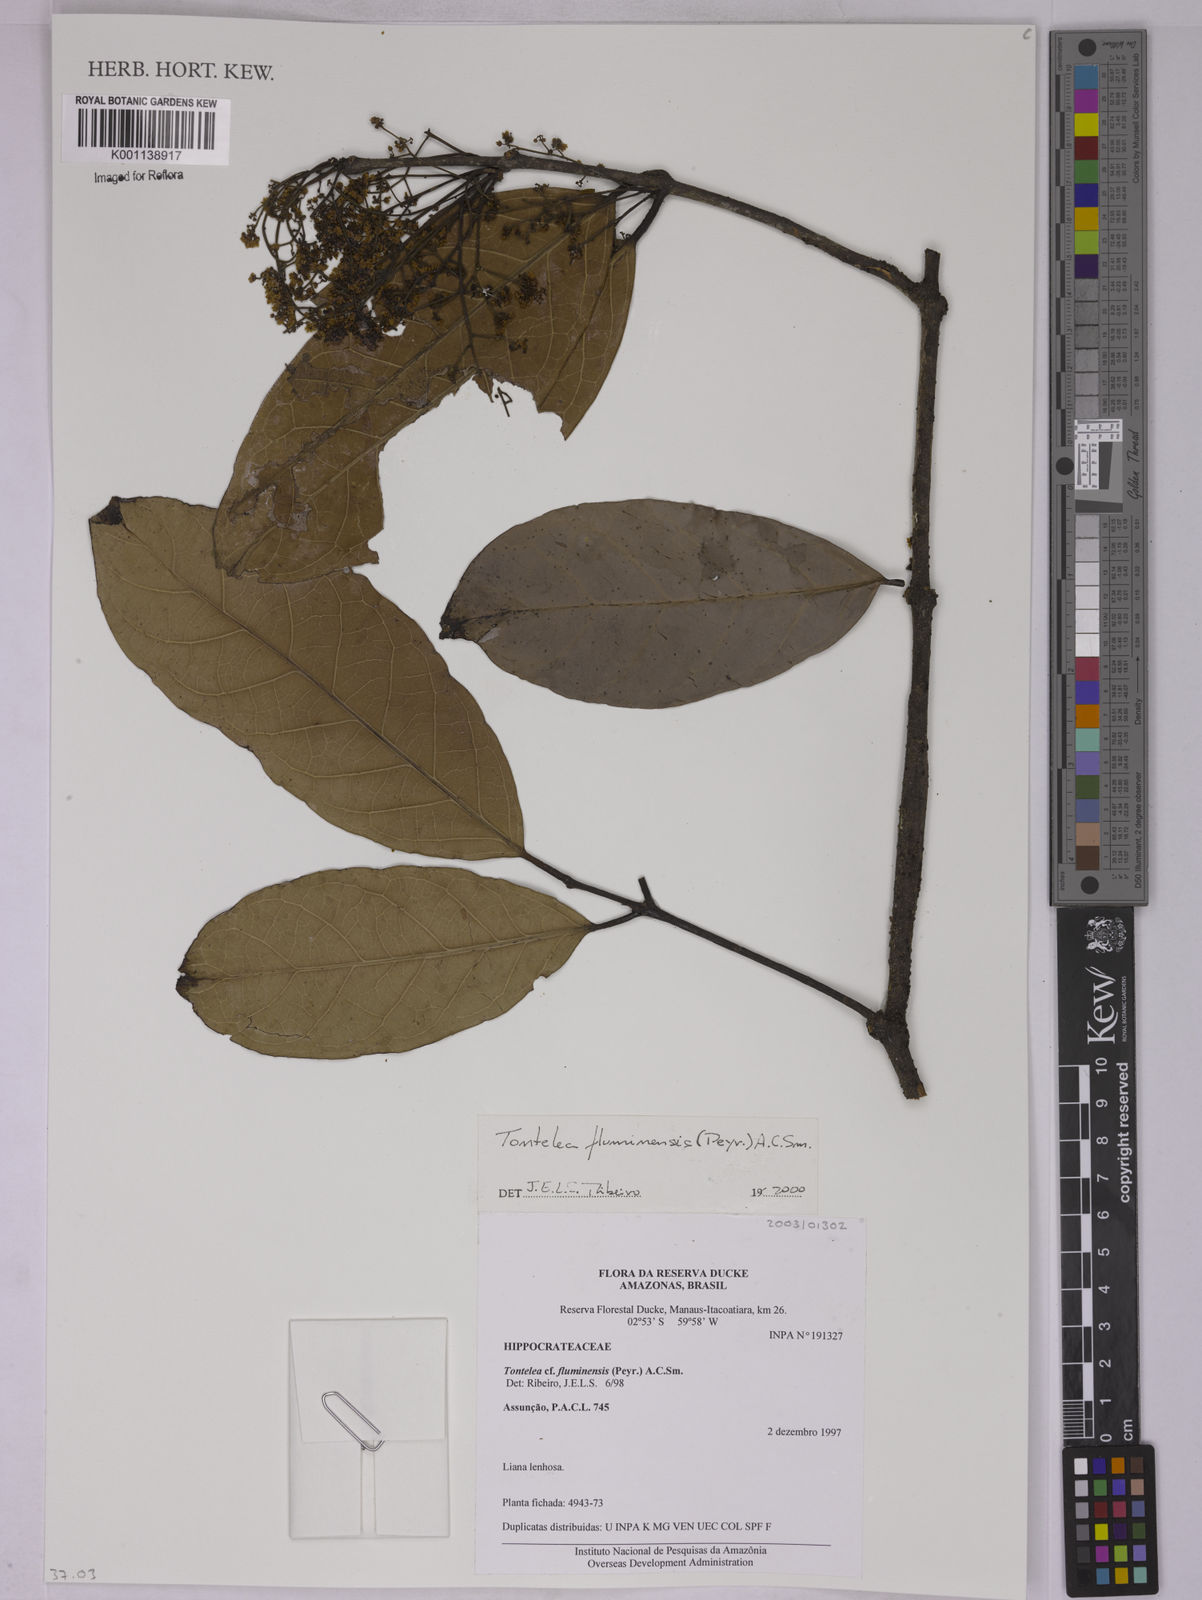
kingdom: Plantae
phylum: Tracheophyta
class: Magnoliopsida
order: Celastrales
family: Celastraceae
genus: Tontelea
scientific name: Tontelea passiflora
